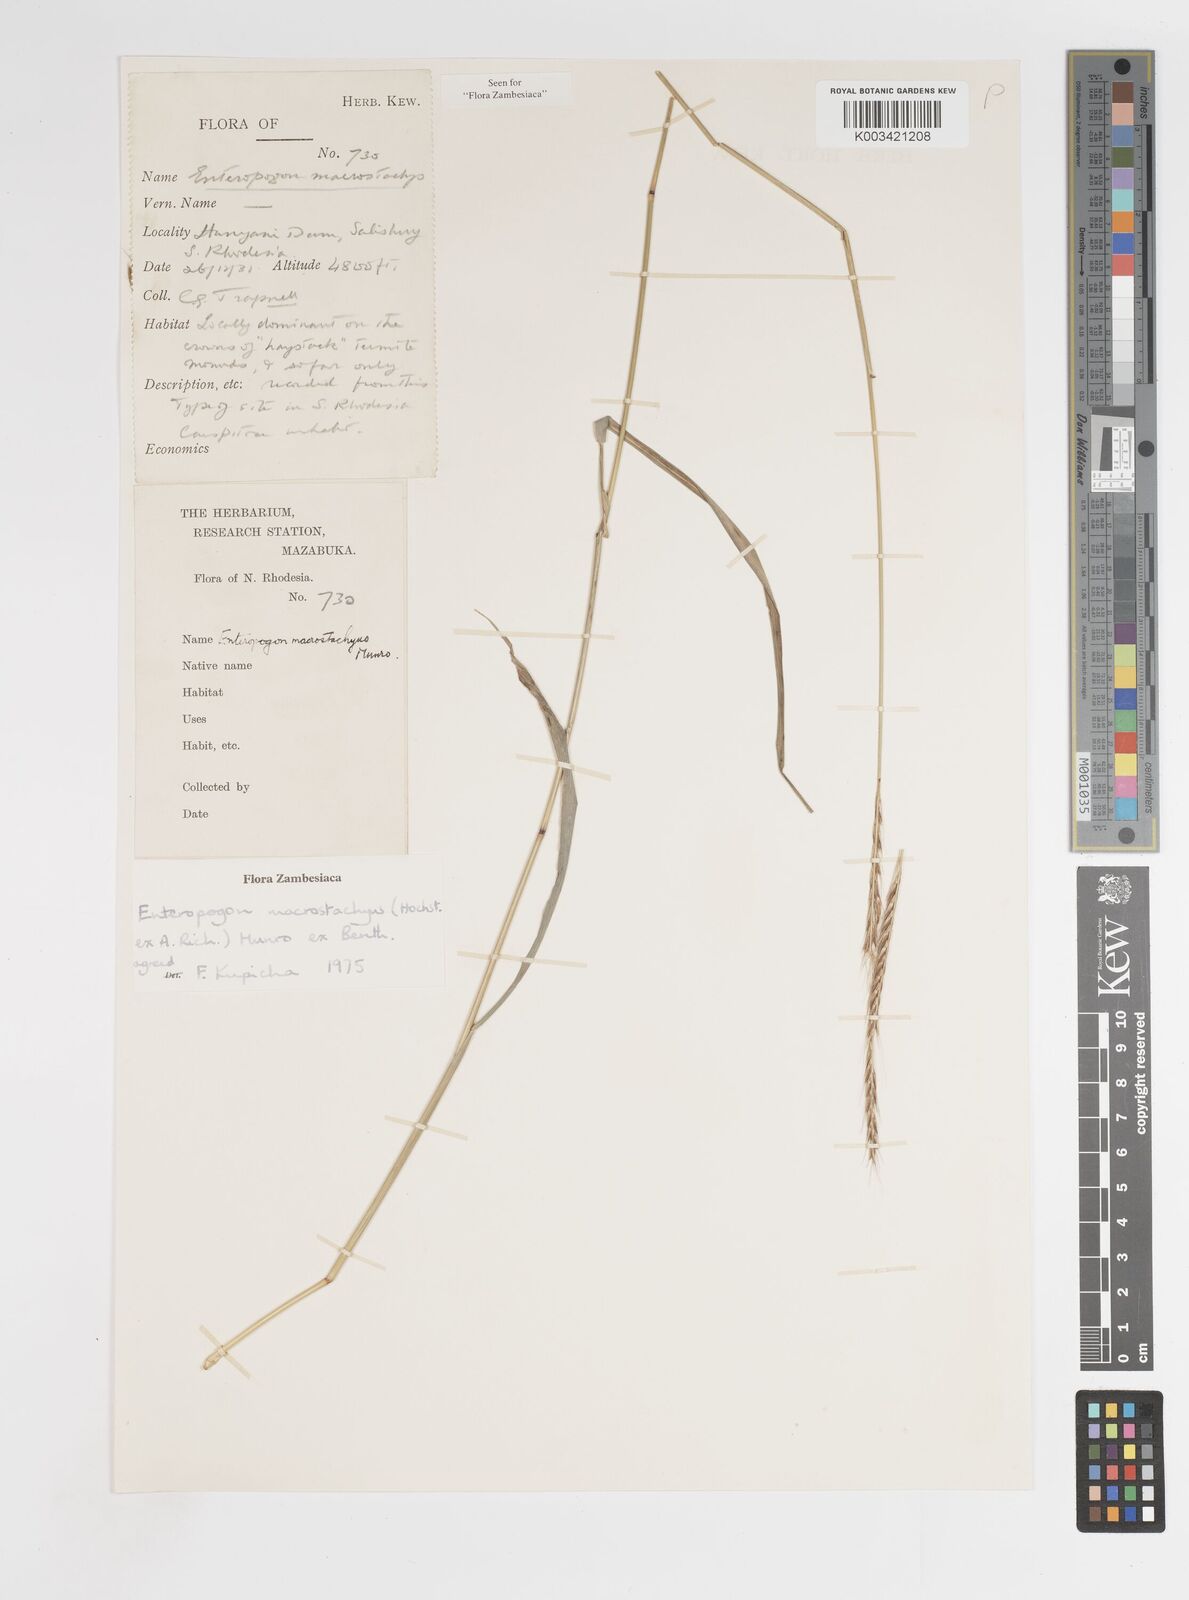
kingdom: Plantae
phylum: Tracheophyta
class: Liliopsida
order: Poales
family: Poaceae
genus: Enteropogon
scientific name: Enteropogon macrostachyus
